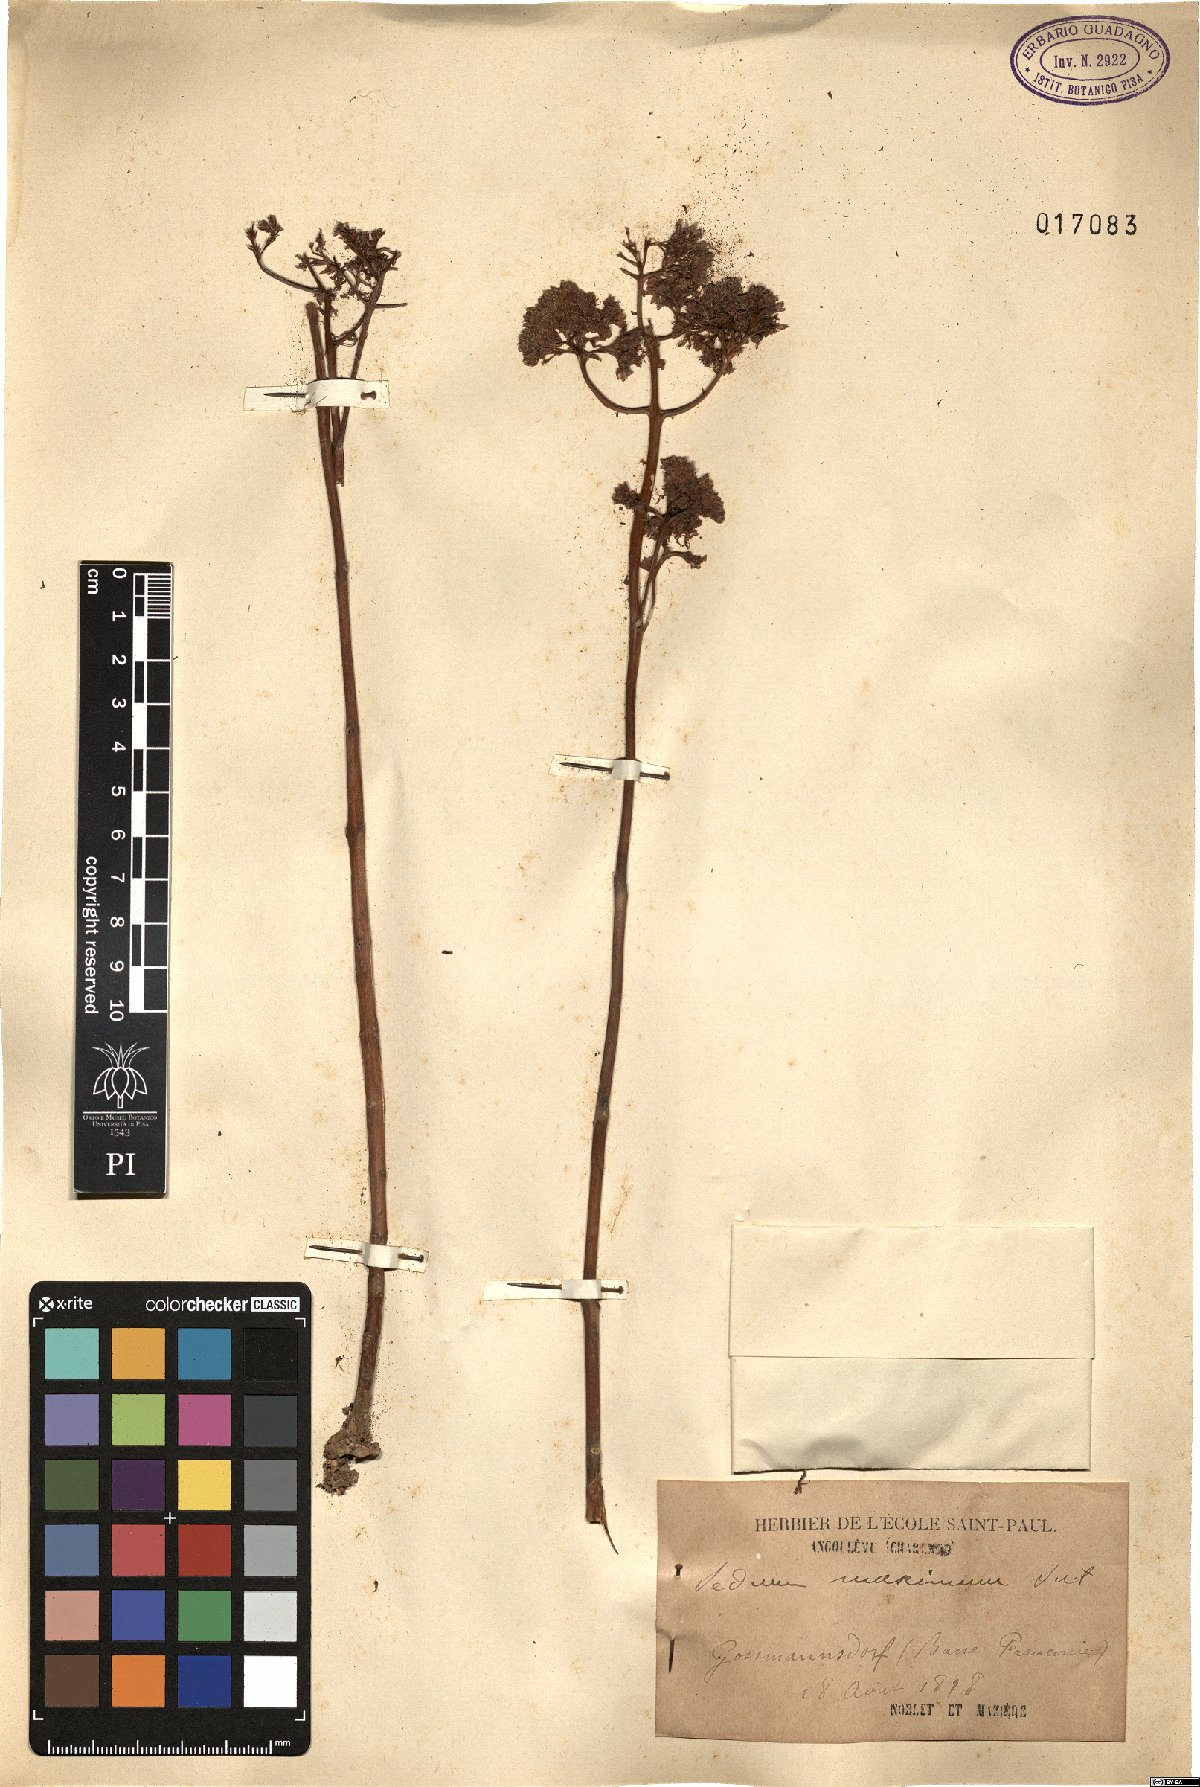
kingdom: Plantae
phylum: Tracheophyta
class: Magnoliopsida
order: Saxifragales
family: Crassulaceae
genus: Hylotelephium
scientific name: Hylotelephium maximum
